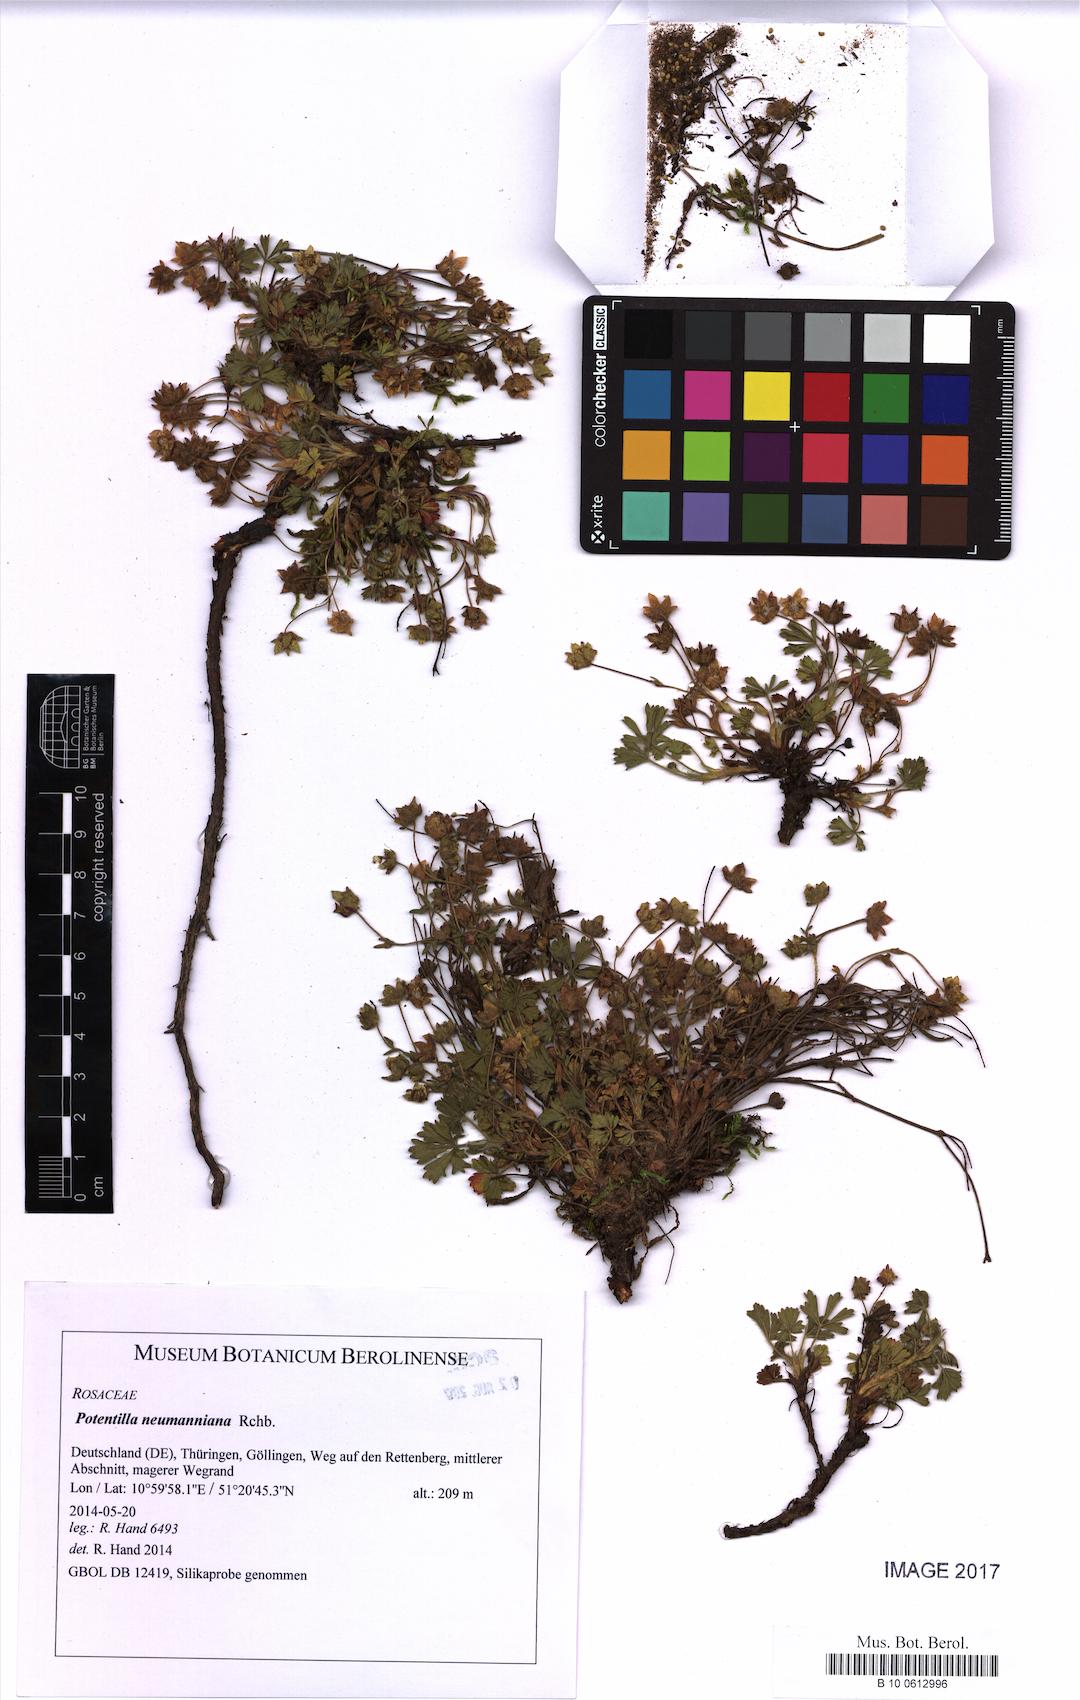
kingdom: Plantae
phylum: Tracheophyta
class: Magnoliopsida
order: Rosales
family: Rosaceae
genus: Potentilla
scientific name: Potentilla verna
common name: Spring cinquefoil
